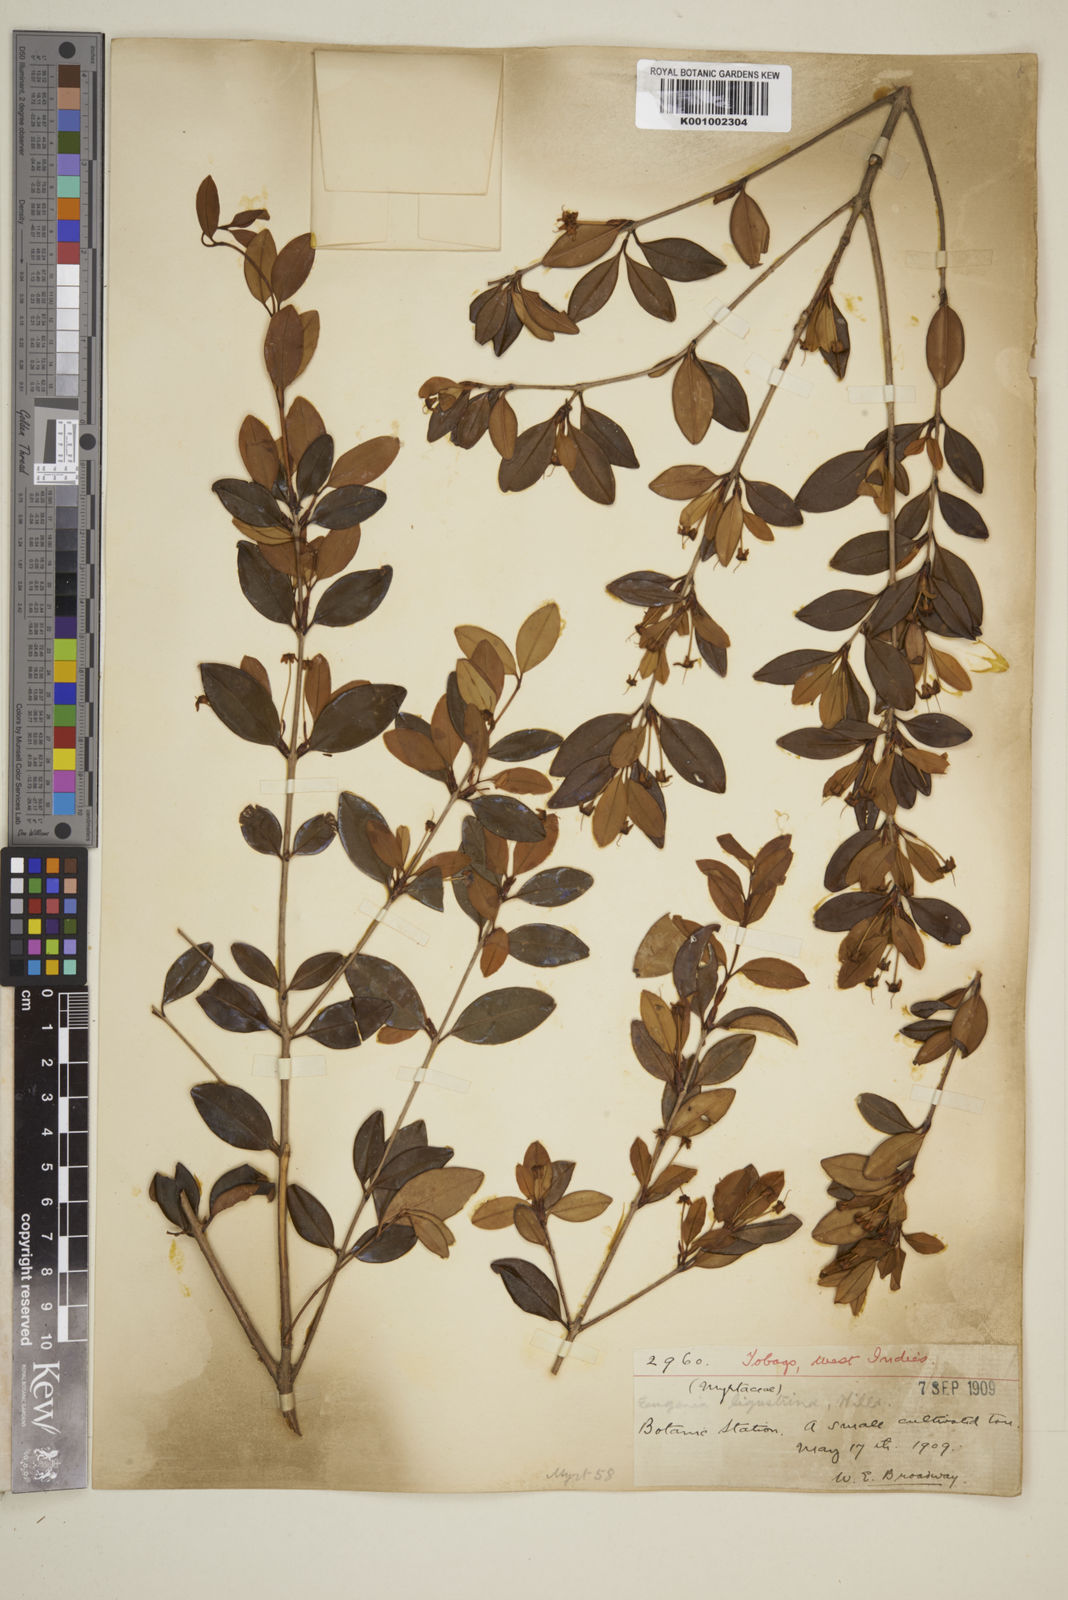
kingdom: Plantae
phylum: Tracheophyta
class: Magnoliopsida
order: Myrtales
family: Myrtaceae
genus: Eugenia
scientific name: Eugenia ligustrina
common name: Privet stopper
